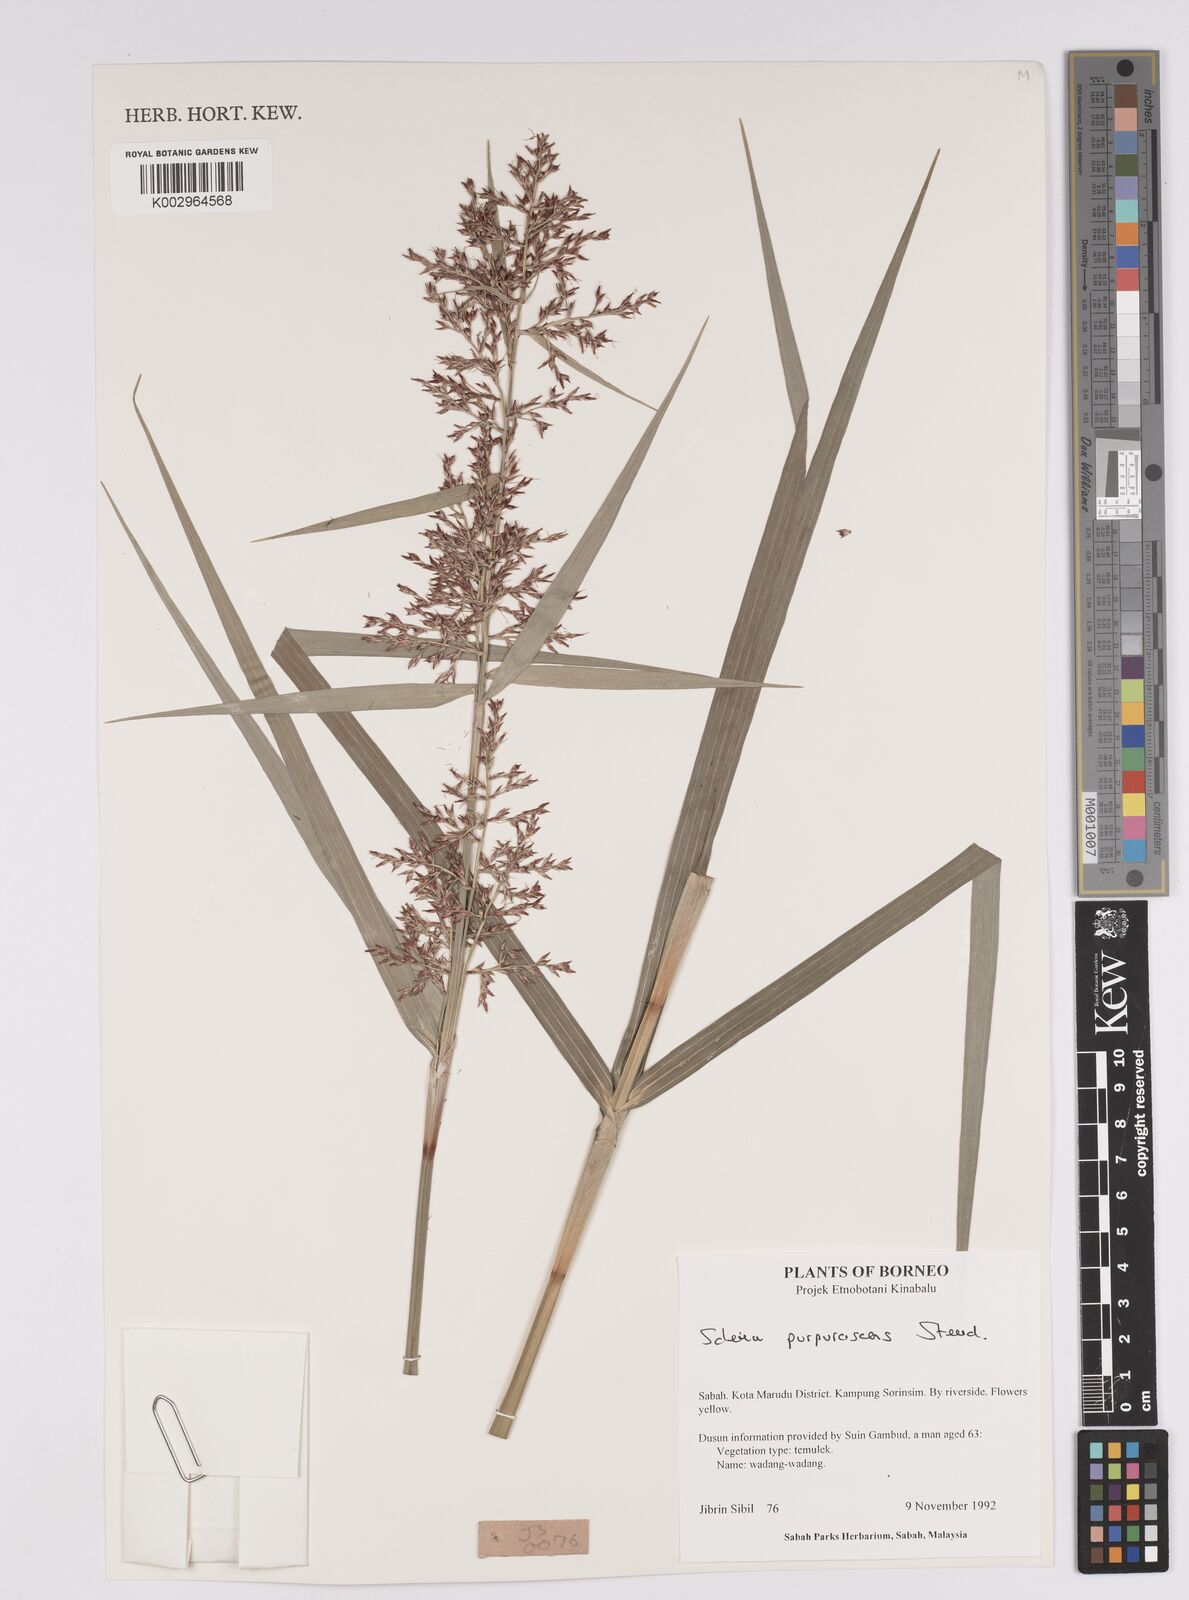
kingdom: Plantae
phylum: Tracheophyta
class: Liliopsida
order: Poales
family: Cyperaceae
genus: Scleria
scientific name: Scleria purpurascens
